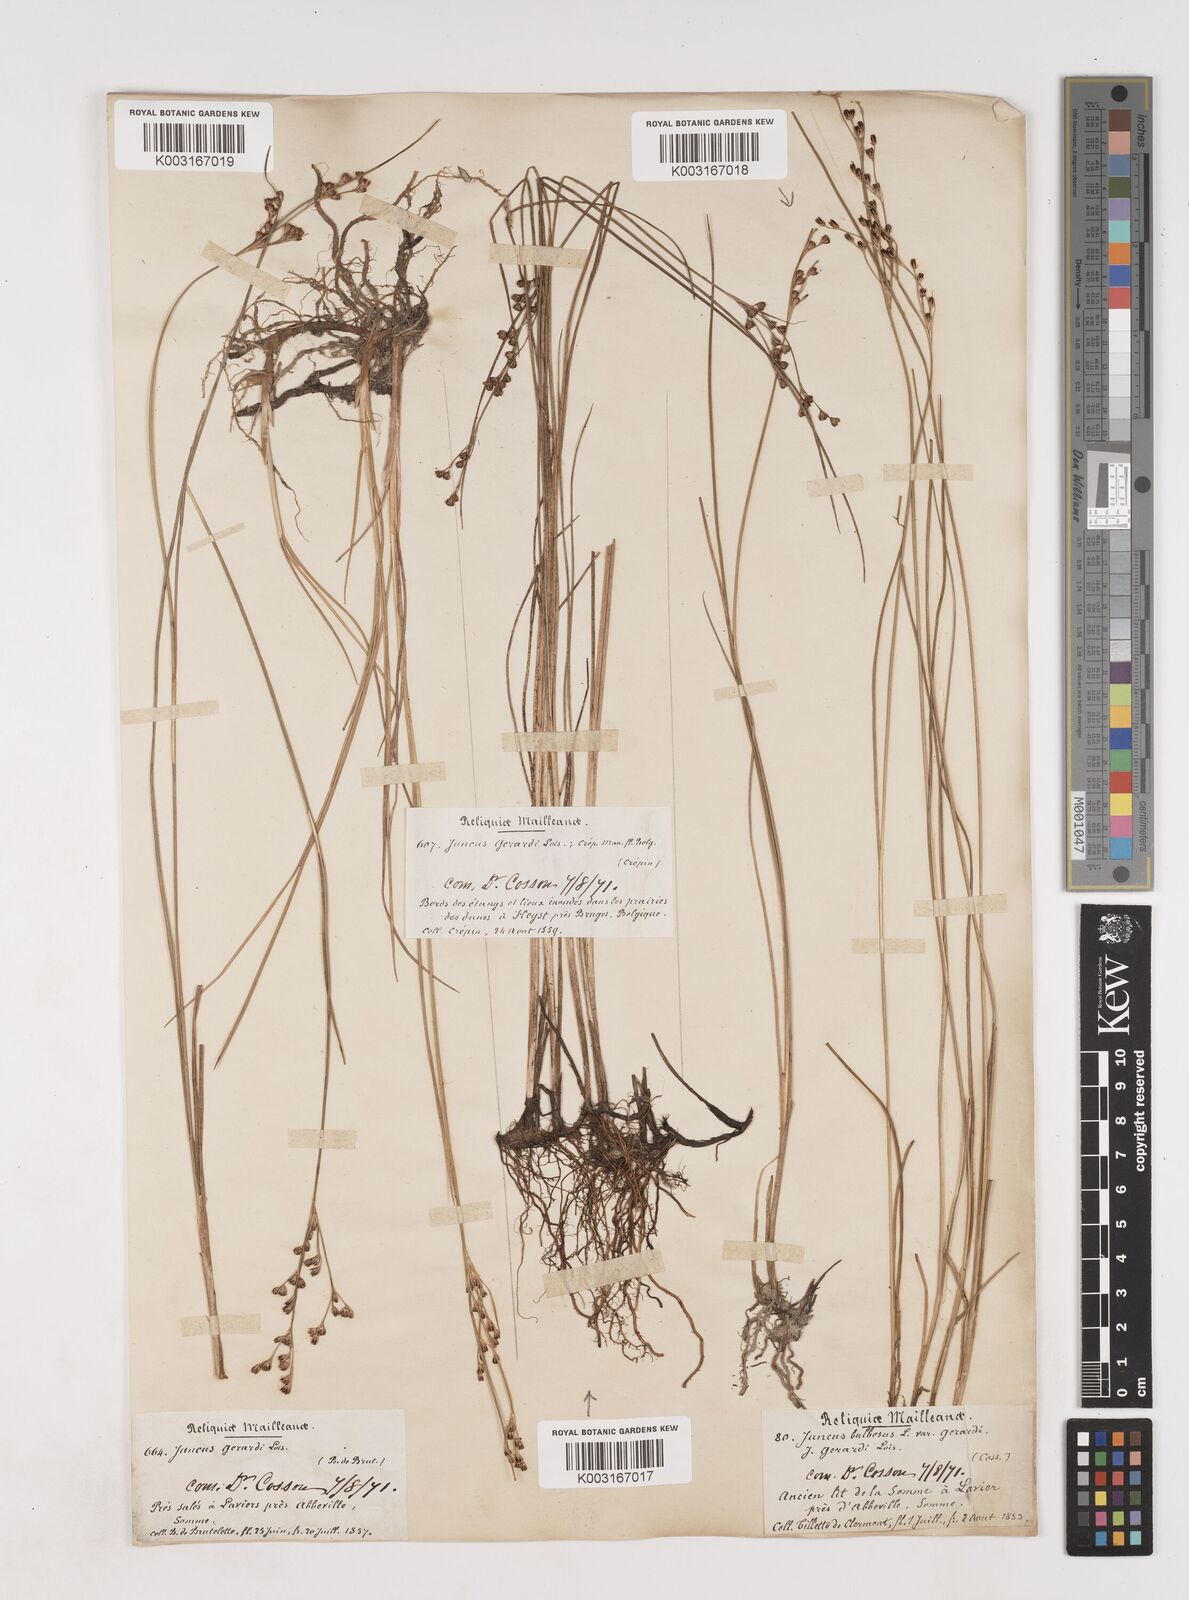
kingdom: Plantae
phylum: Tracheophyta
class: Liliopsida
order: Poales
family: Juncaceae
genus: Juncus
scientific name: Juncus gerardi
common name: Saltmarsh rush
